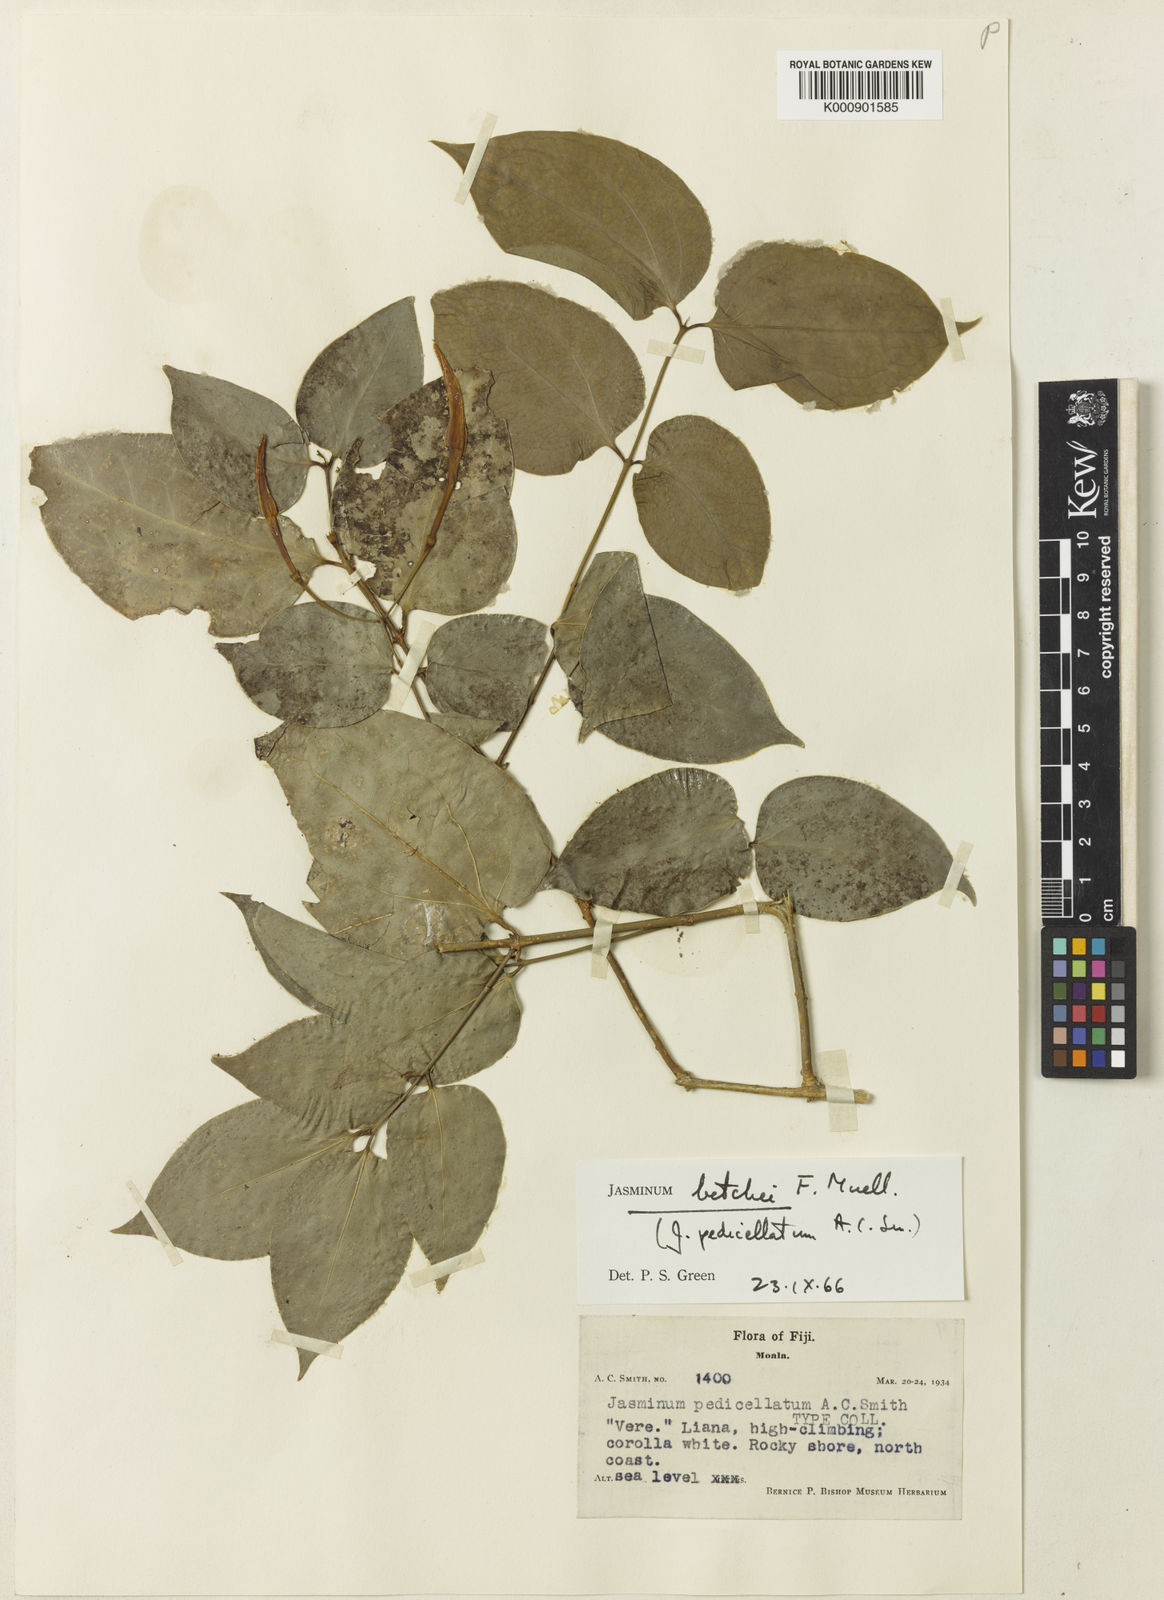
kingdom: Plantae
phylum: Tracheophyta
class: Magnoliopsida
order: Lamiales
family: Oleaceae
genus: Jasminum
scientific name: Jasminum betchei
